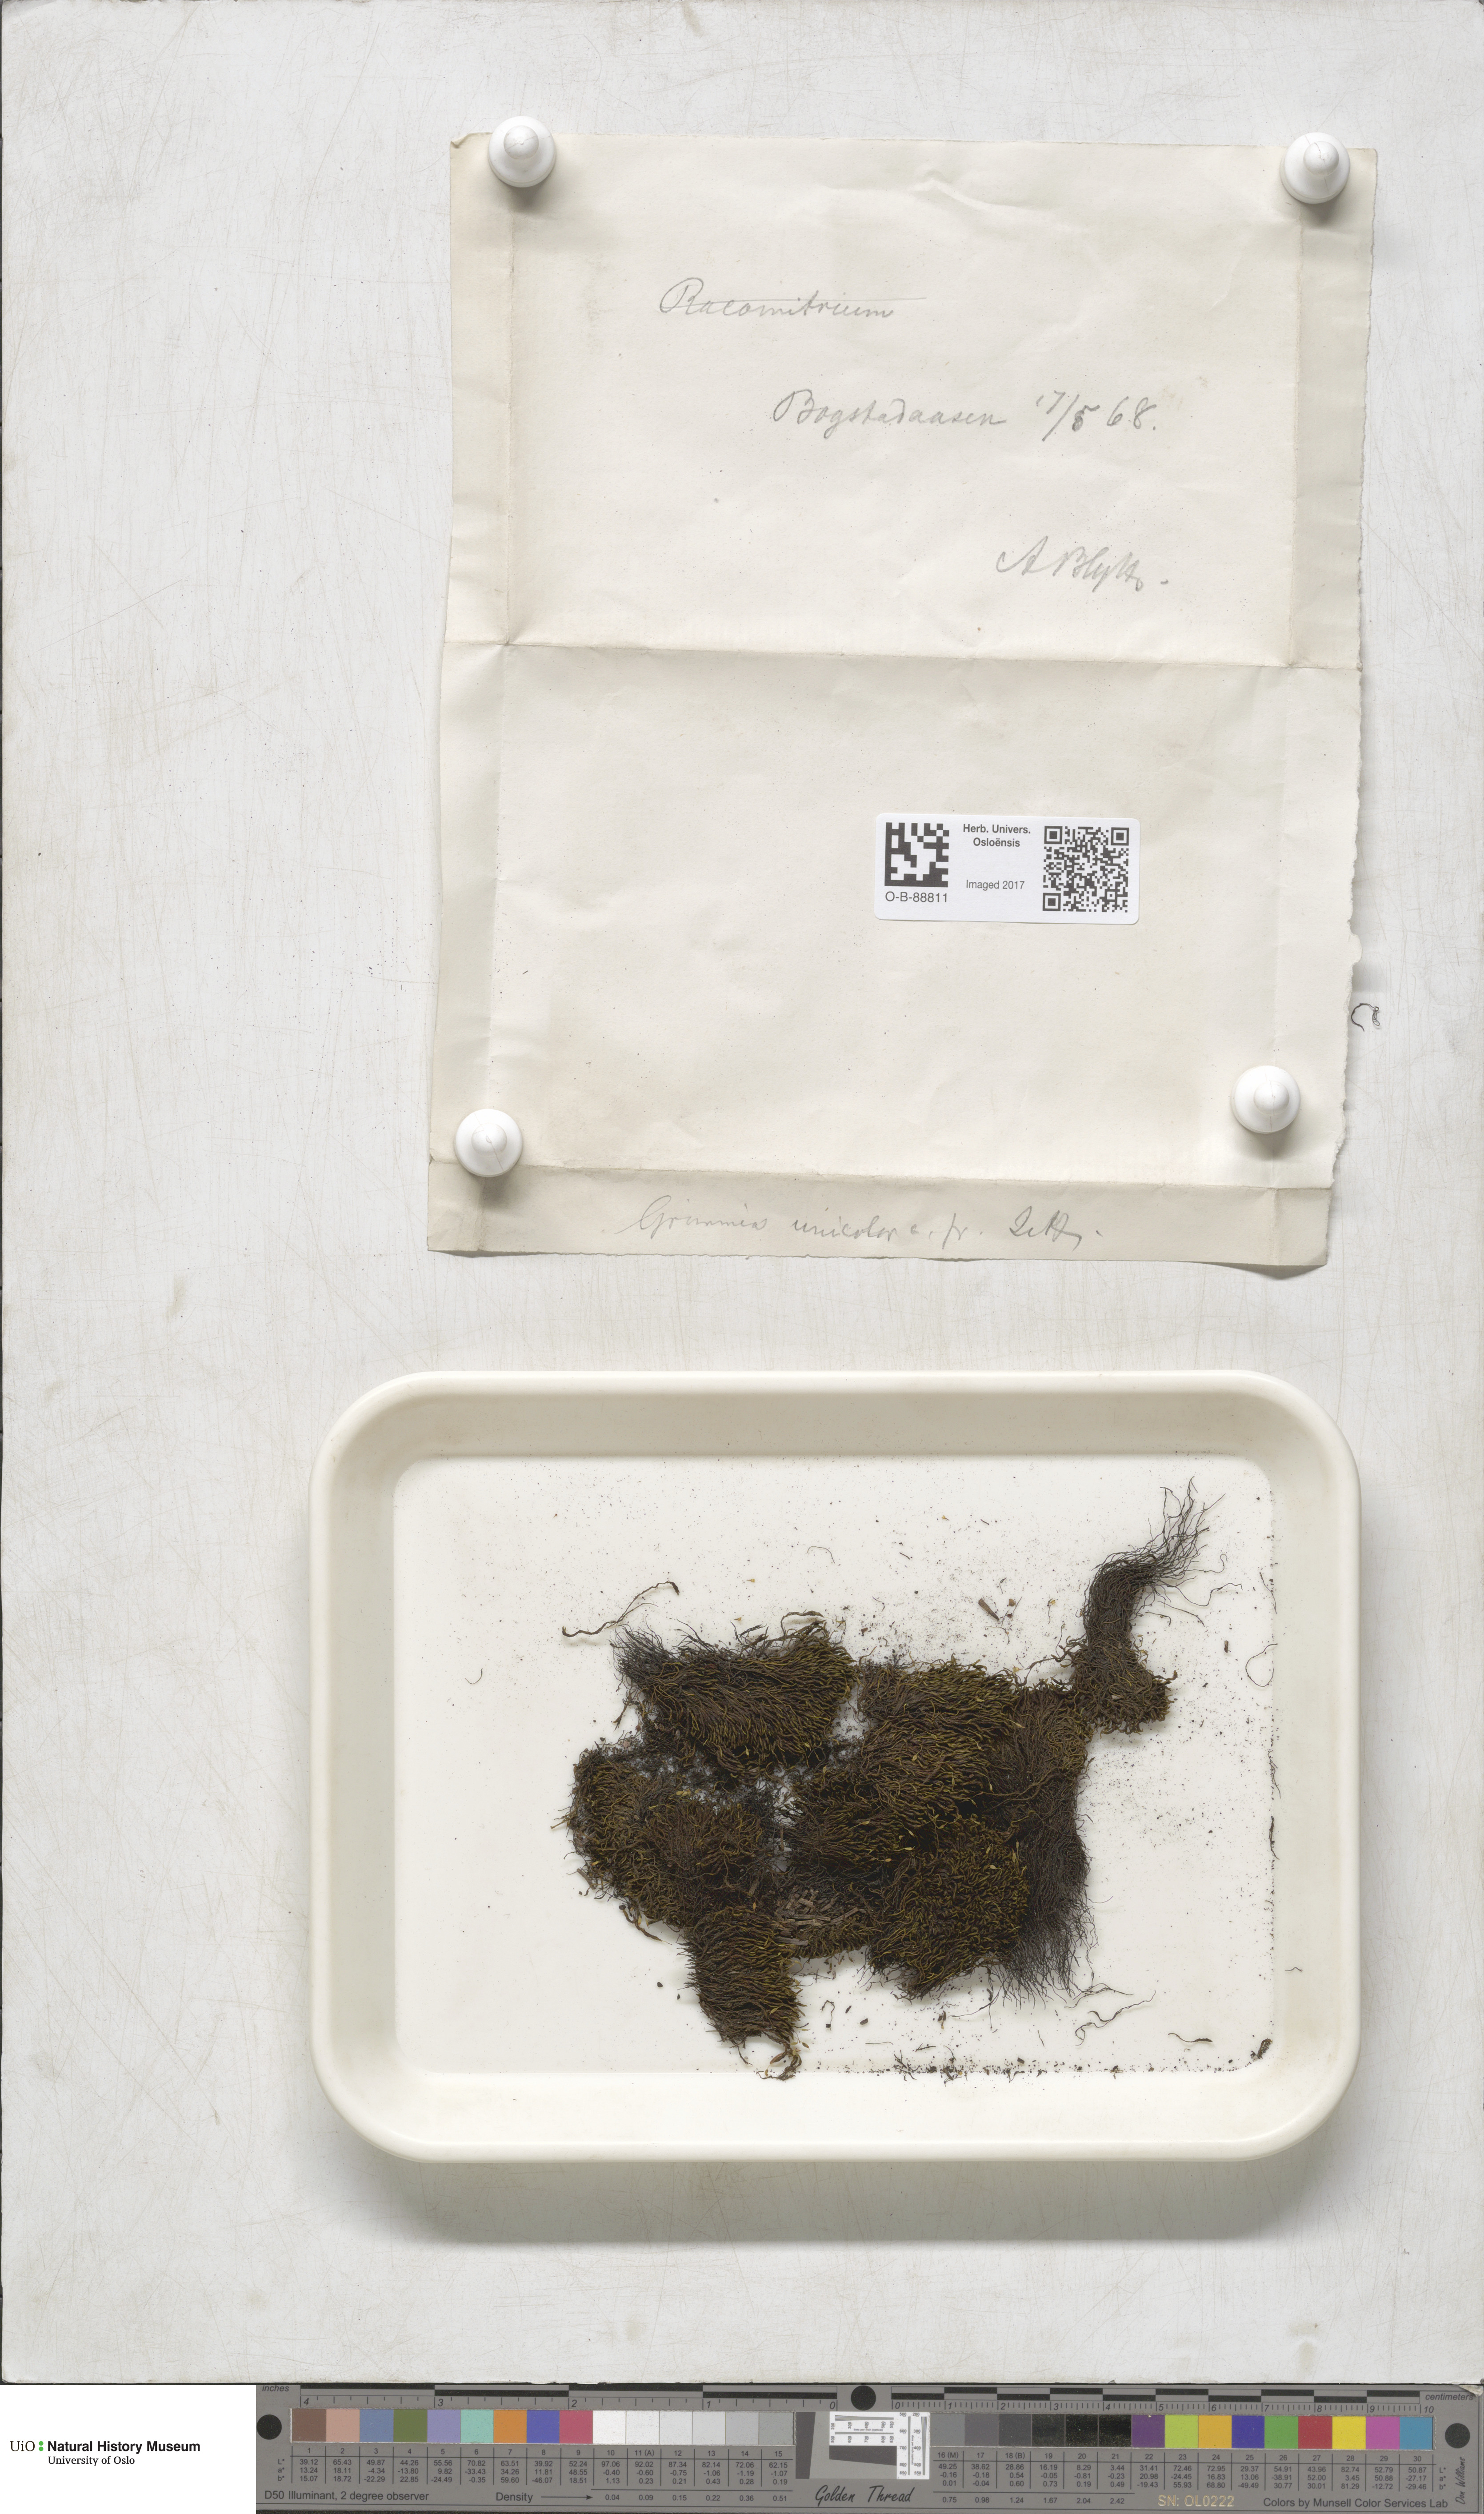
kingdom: Plantae
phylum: Bryophyta
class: Bryopsida
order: Grimmiales
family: Grimmiaceae
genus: Grimmia
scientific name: Grimmia unicolor
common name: Dingy grimmia
